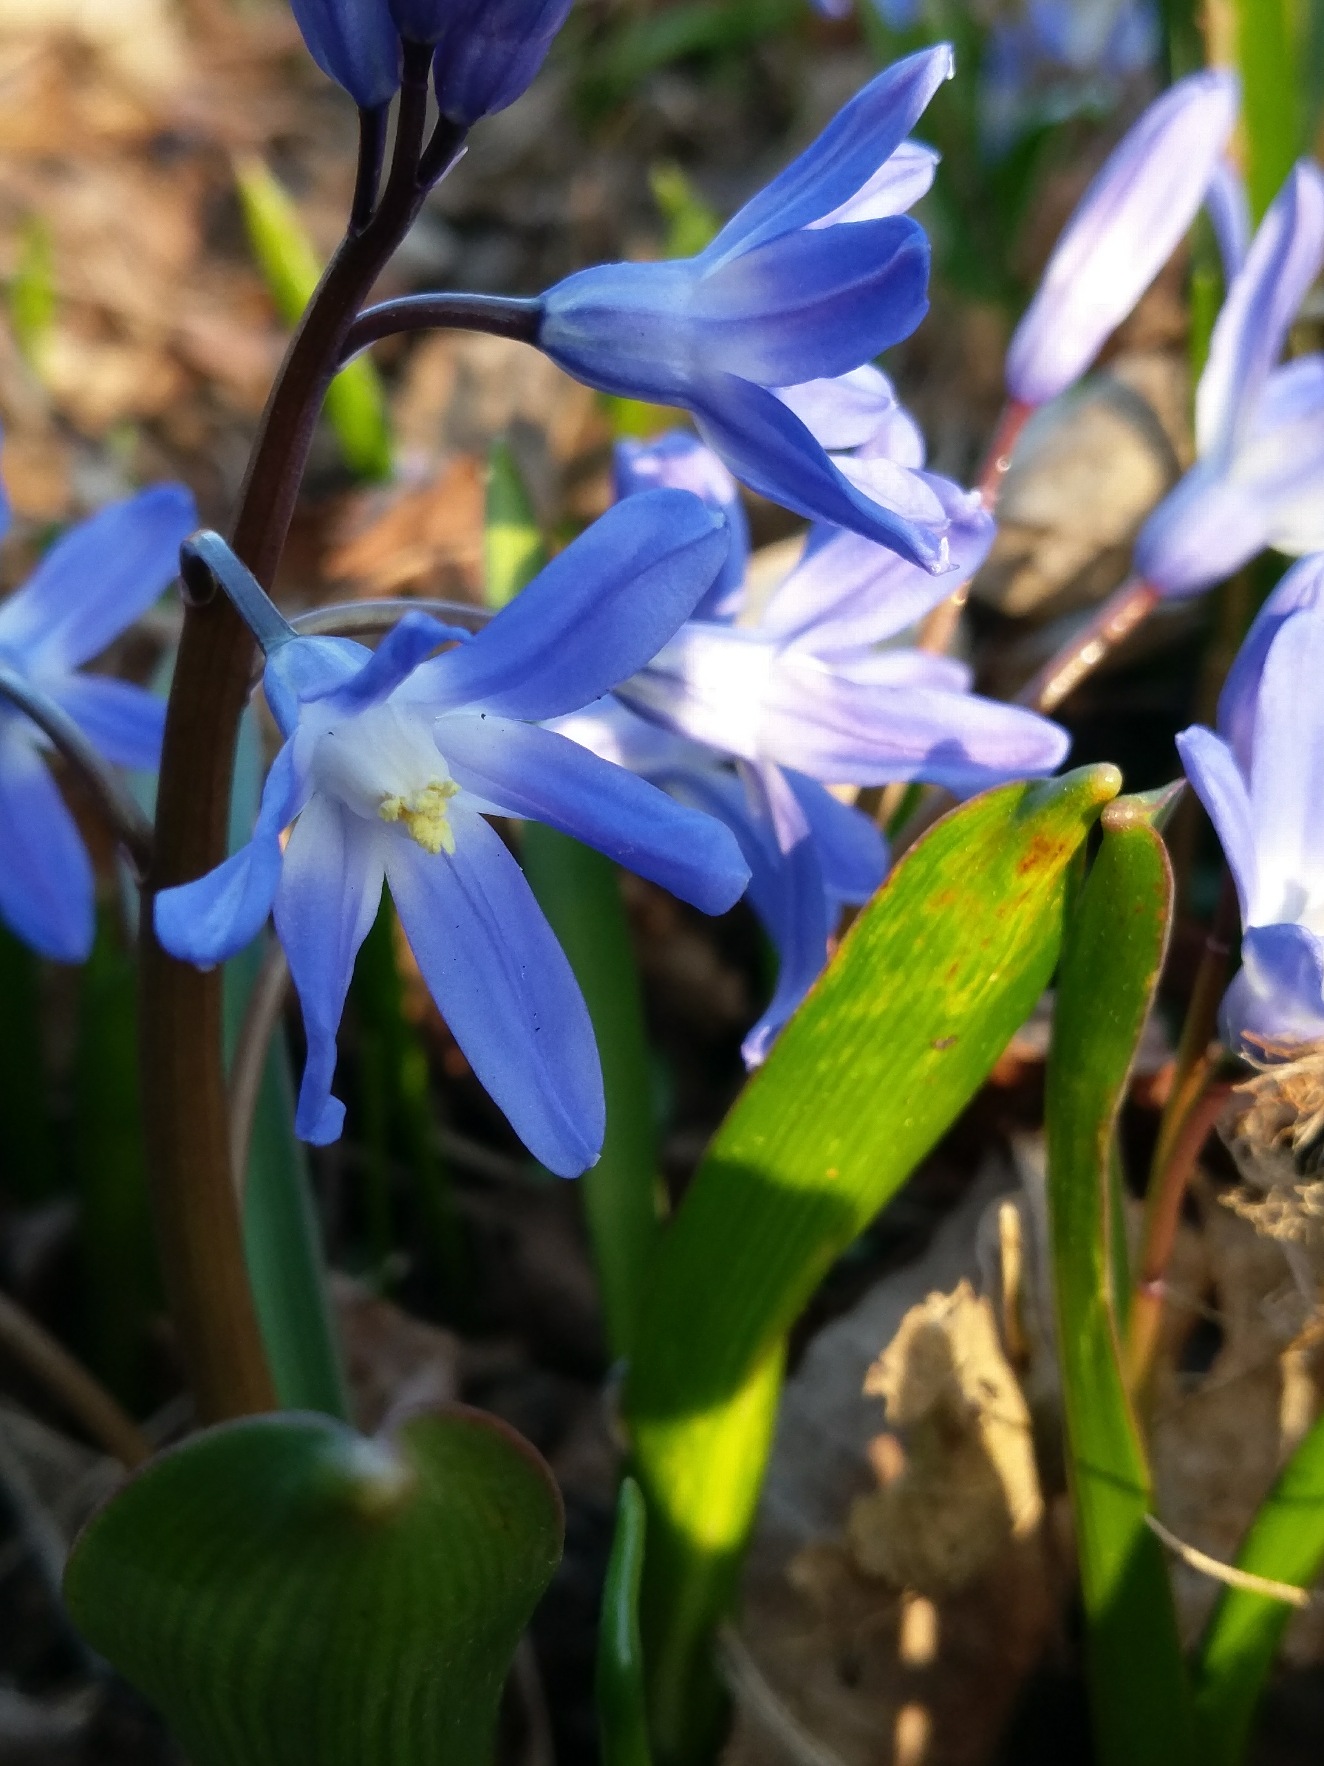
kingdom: Plantae
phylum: Tracheophyta
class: Liliopsida
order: Asparagales
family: Asparagaceae
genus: Scilla
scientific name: Scilla forbesii
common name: Almindelig snepryd
